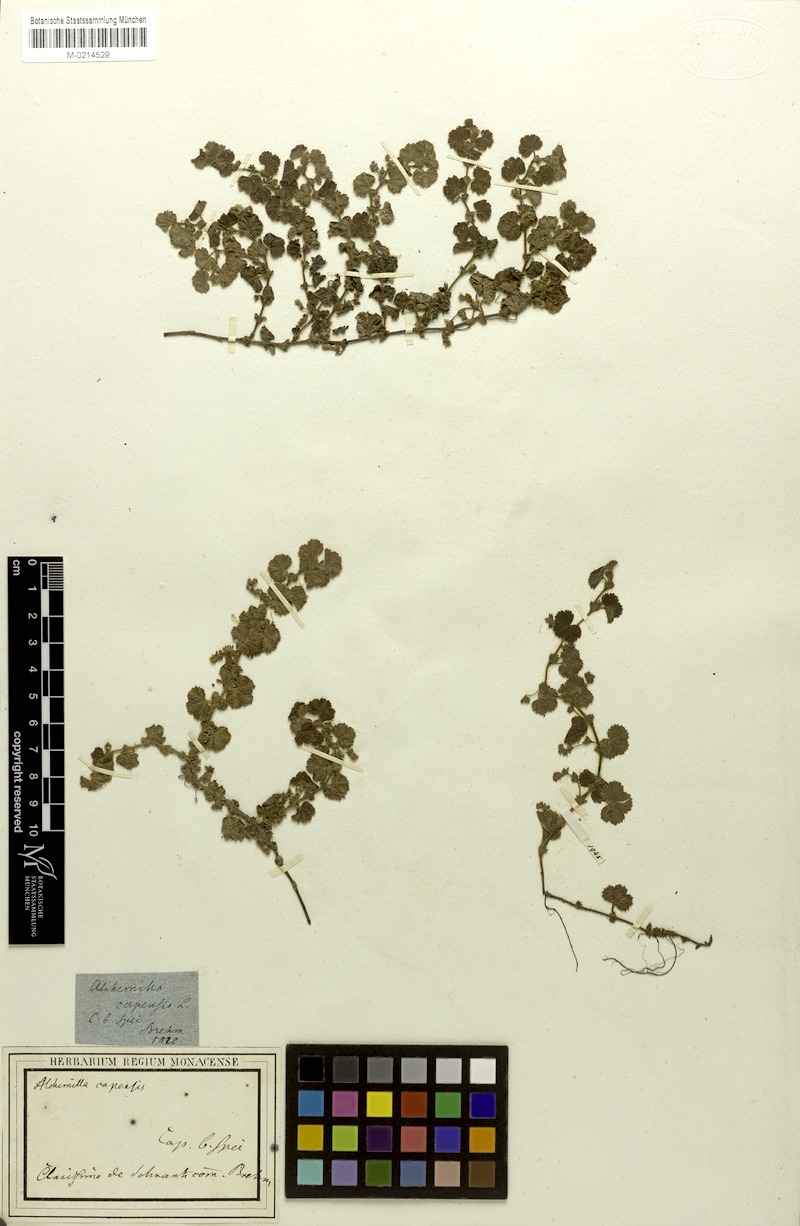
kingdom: Plantae
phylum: Tracheophyta
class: Magnoliopsida
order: Rosales
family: Rosaceae
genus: Alchemilla
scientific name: Alchemilla capensis
